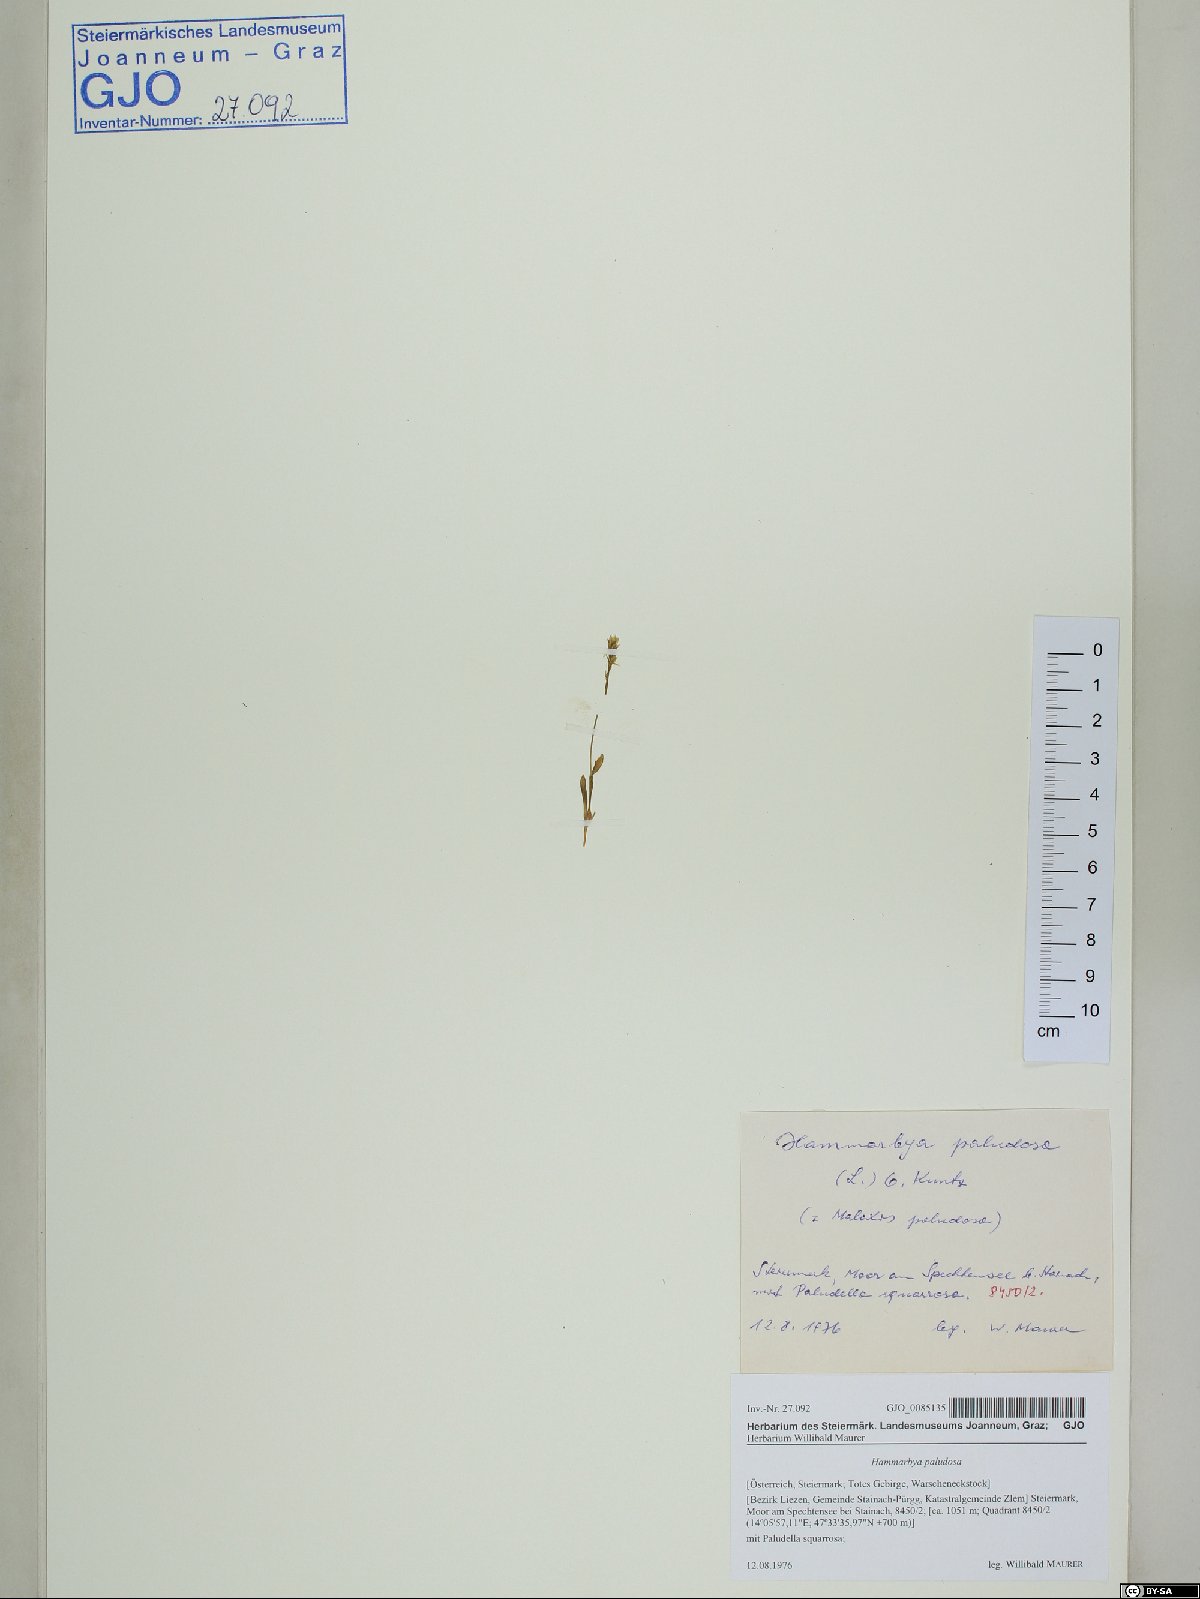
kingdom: Plantae
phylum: Tracheophyta
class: Liliopsida
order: Asparagales
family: Orchidaceae
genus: Hammarbya
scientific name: Hammarbya paludosa
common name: Bog orchid
